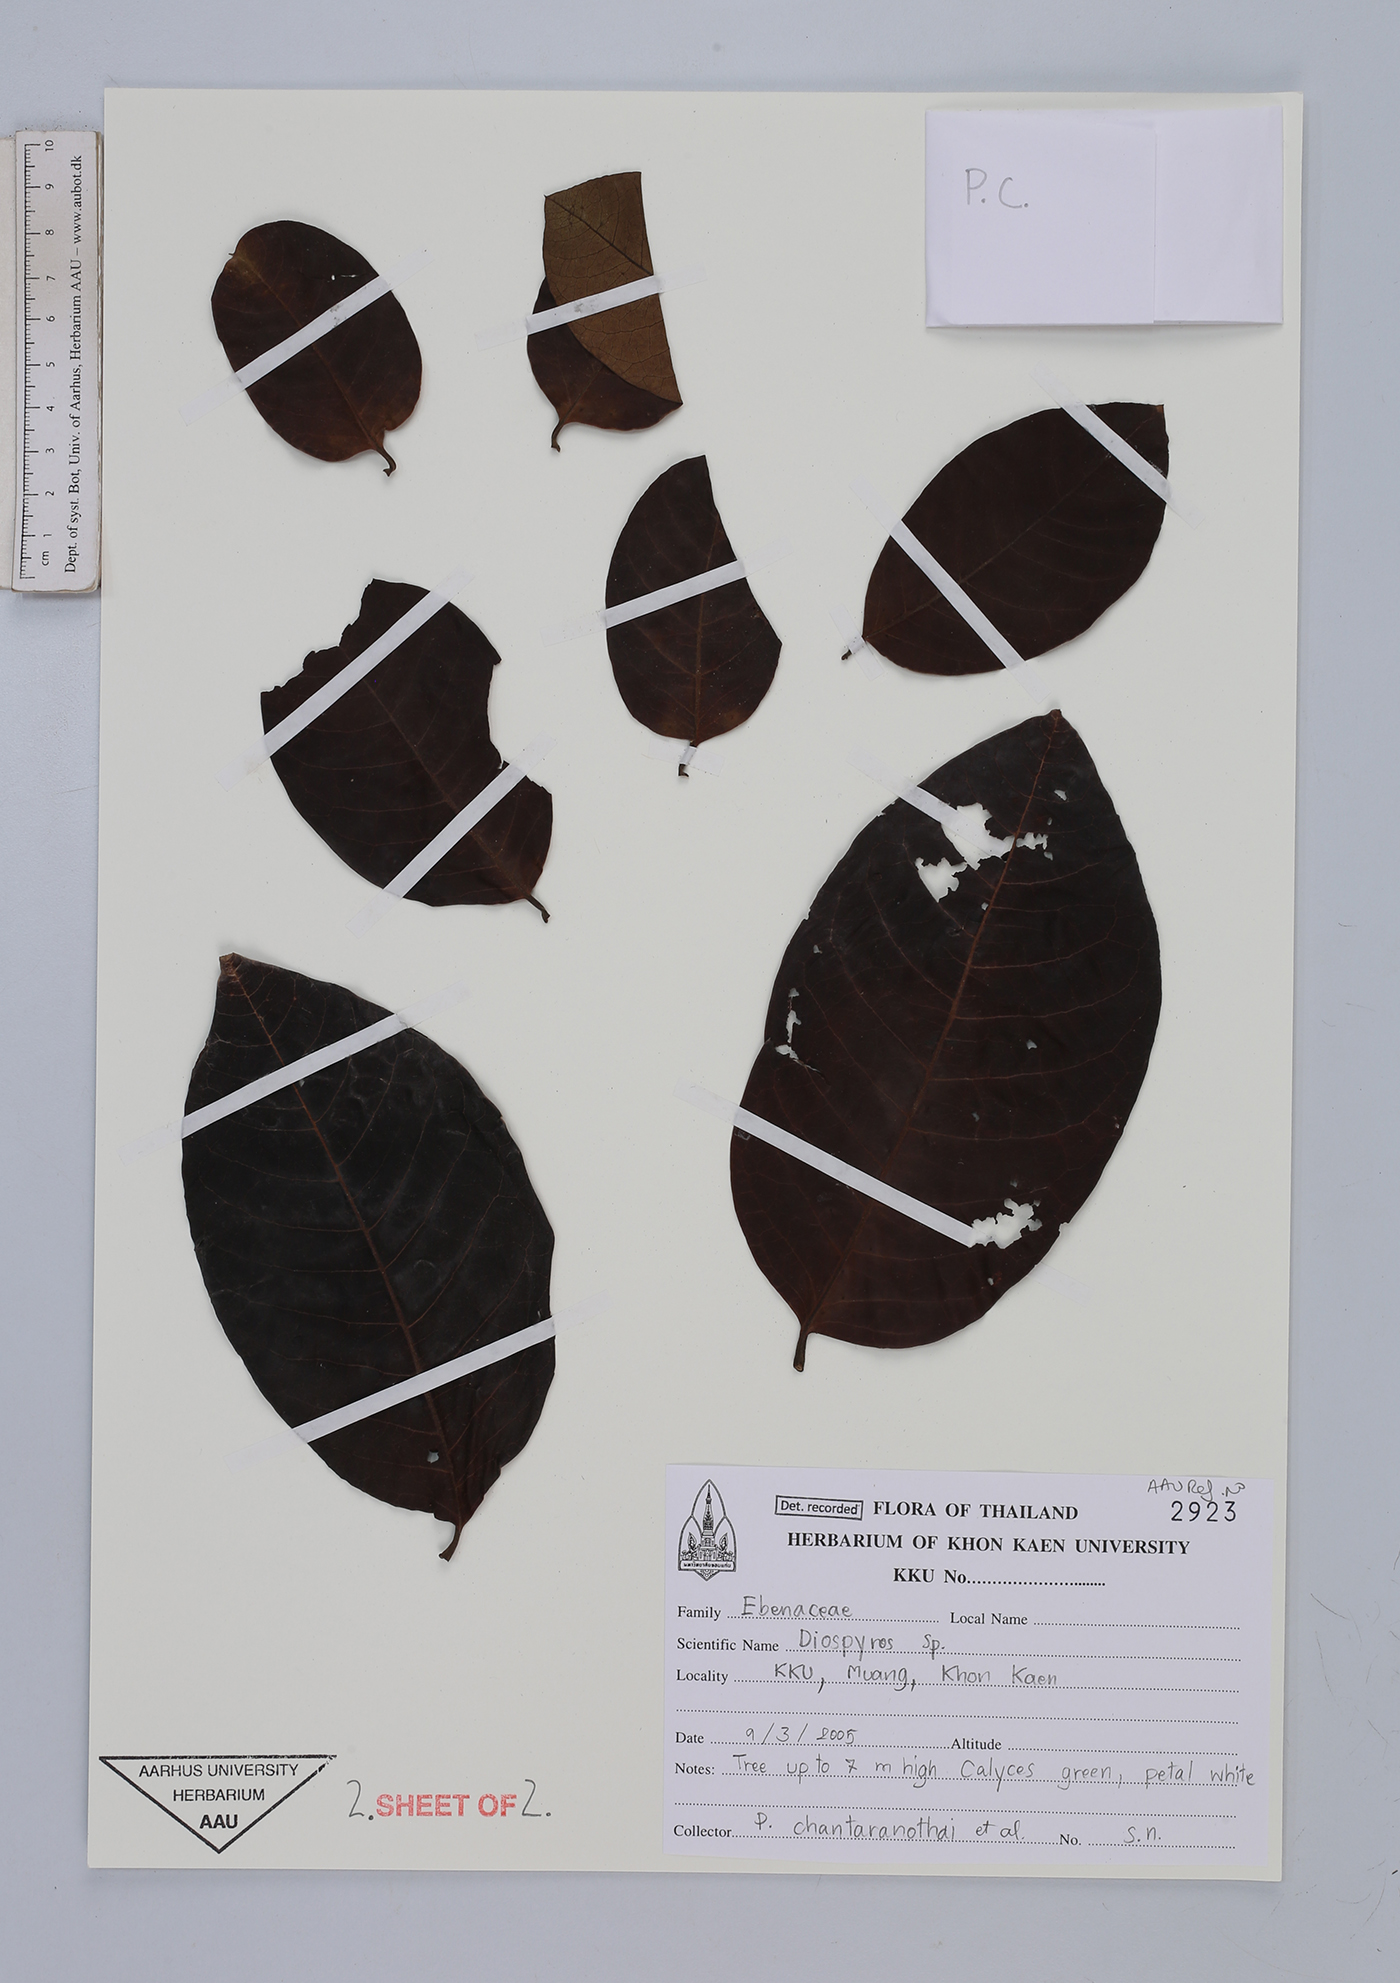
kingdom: Plantae
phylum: Tracheophyta
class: Magnoliopsida
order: Ericales
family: Ebenaceae
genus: Diospyros
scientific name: Diospyros
